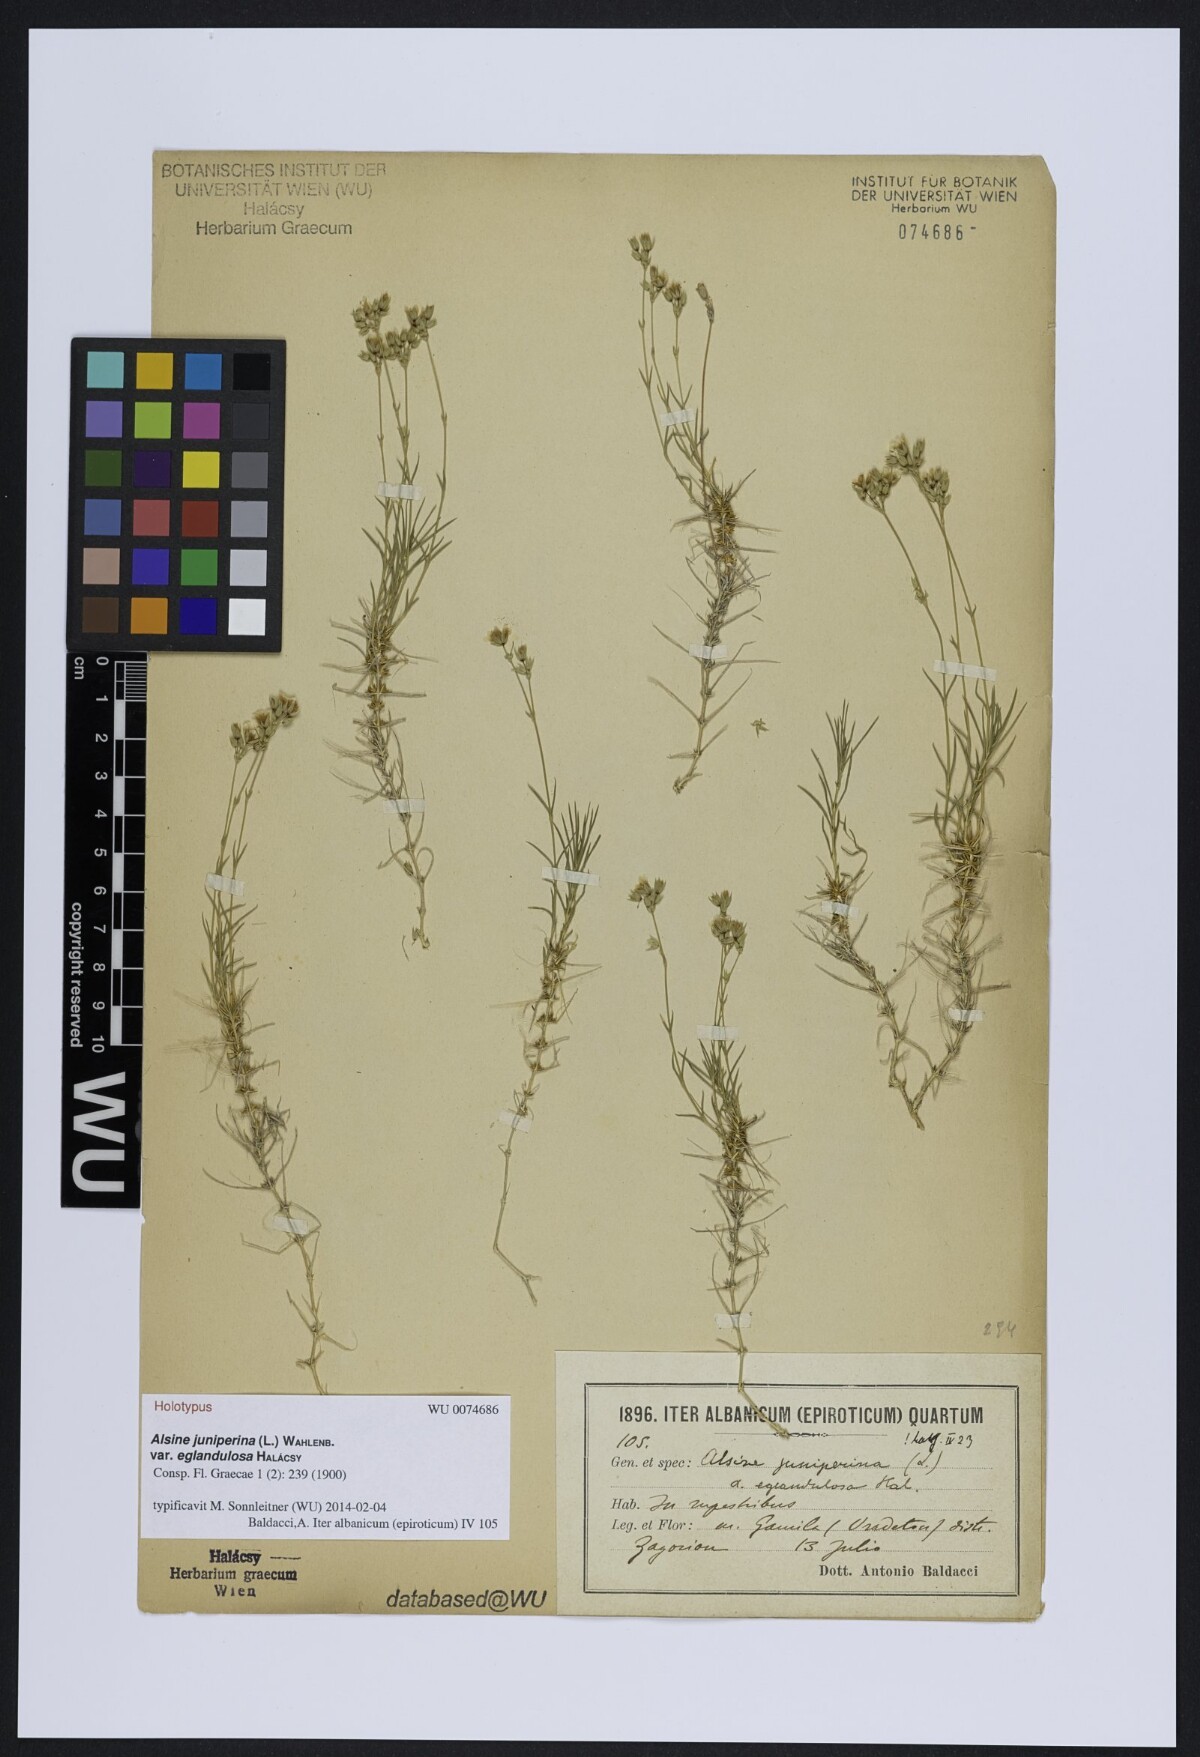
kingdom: Plantae
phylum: Tracheophyta
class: Magnoliopsida
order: Caryophyllales
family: Caryophyllaceae
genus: Sabulina
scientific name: Sabulina juniperina
